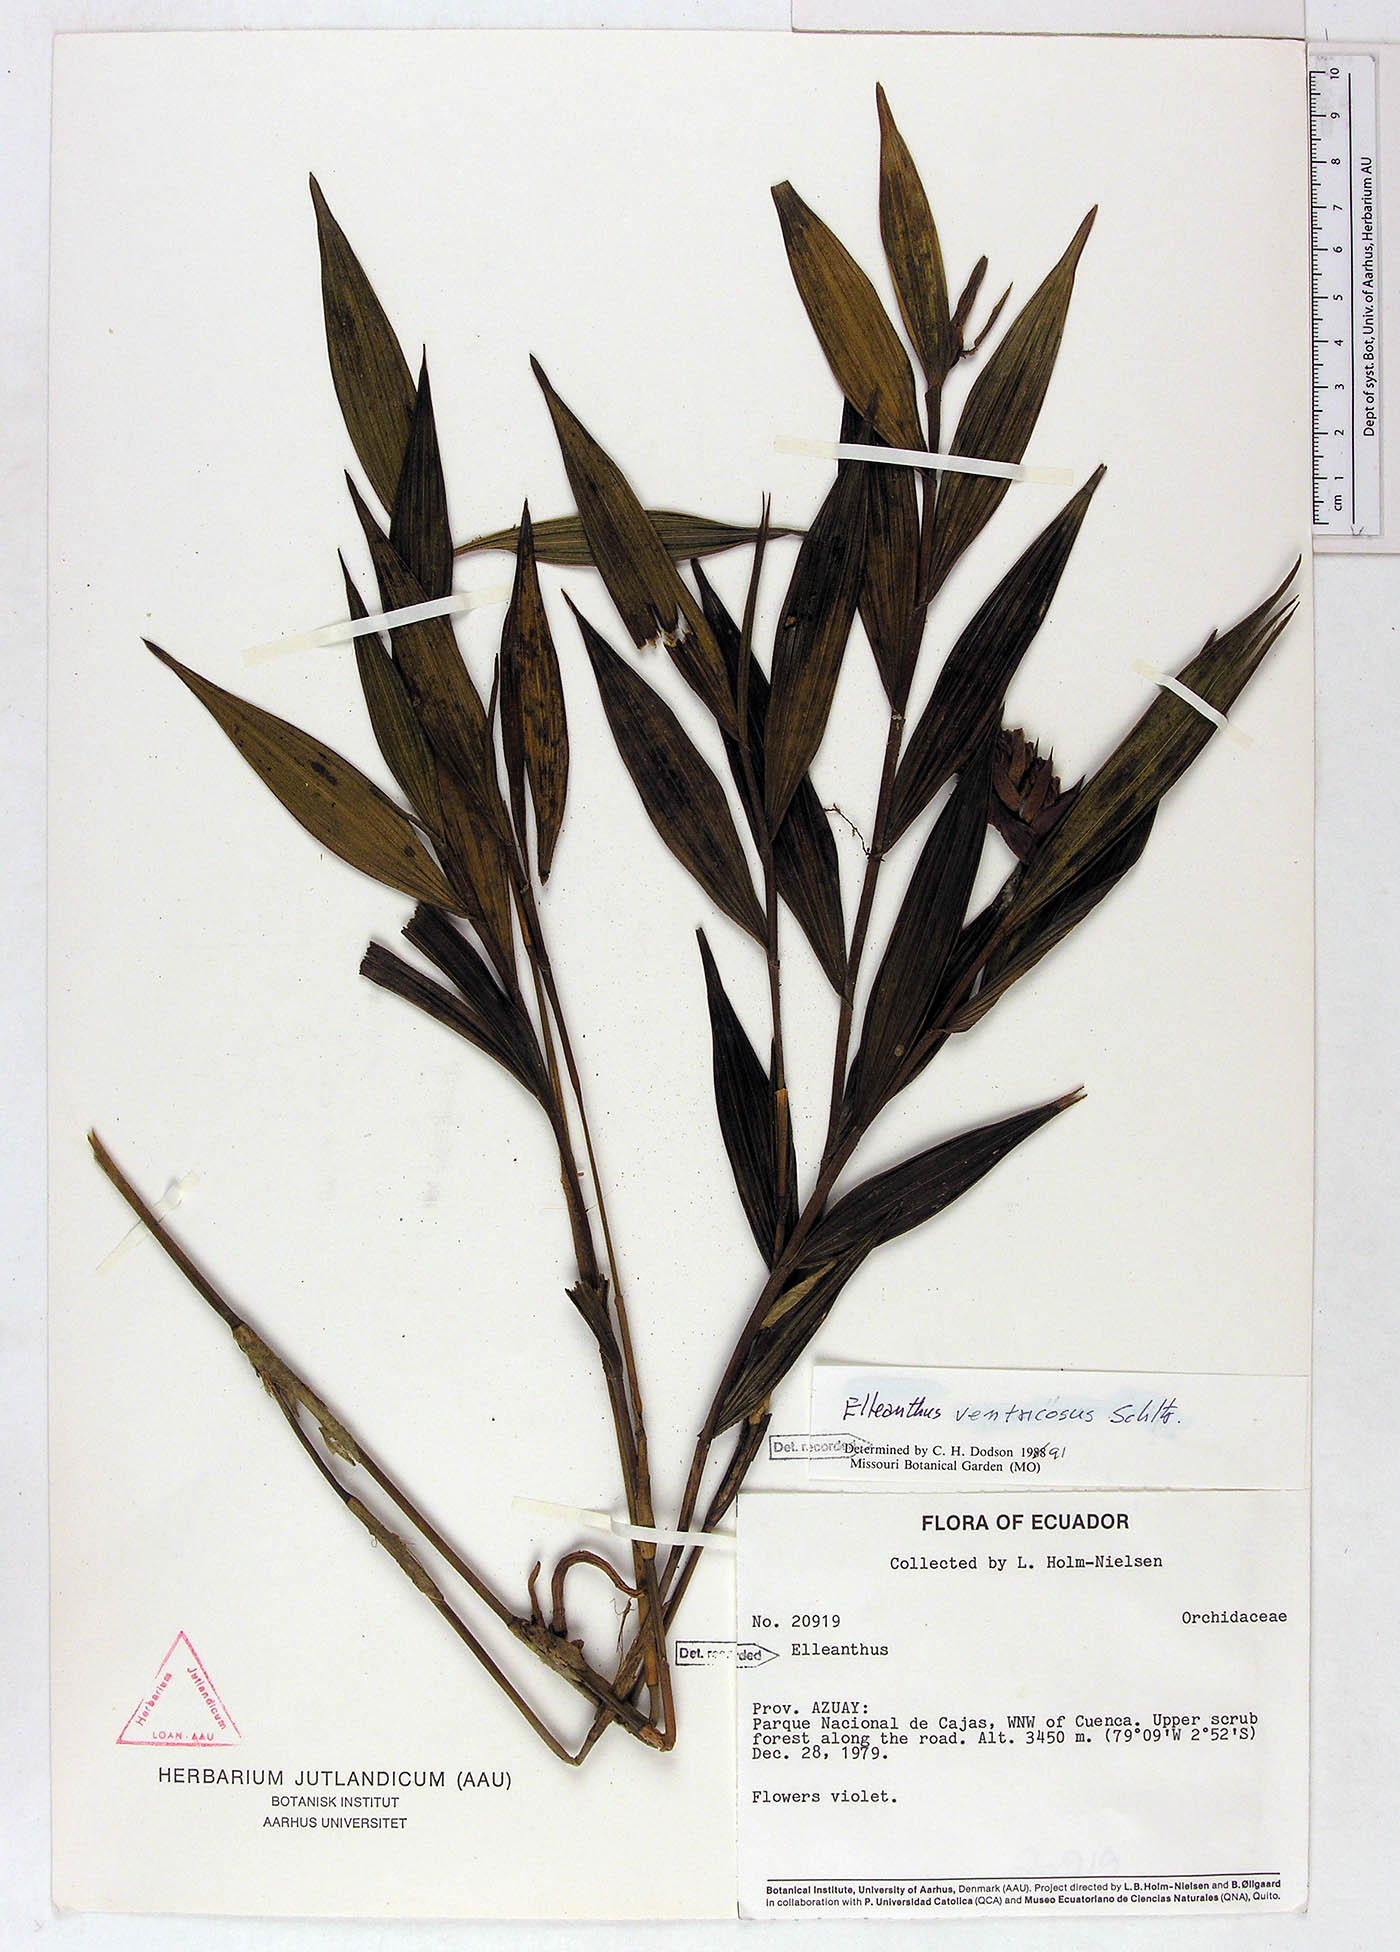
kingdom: Plantae
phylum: Tracheophyta
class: Liliopsida
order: Asparagales
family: Orchidaceae
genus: Elleanthus
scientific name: Elleanthus ventricosus
